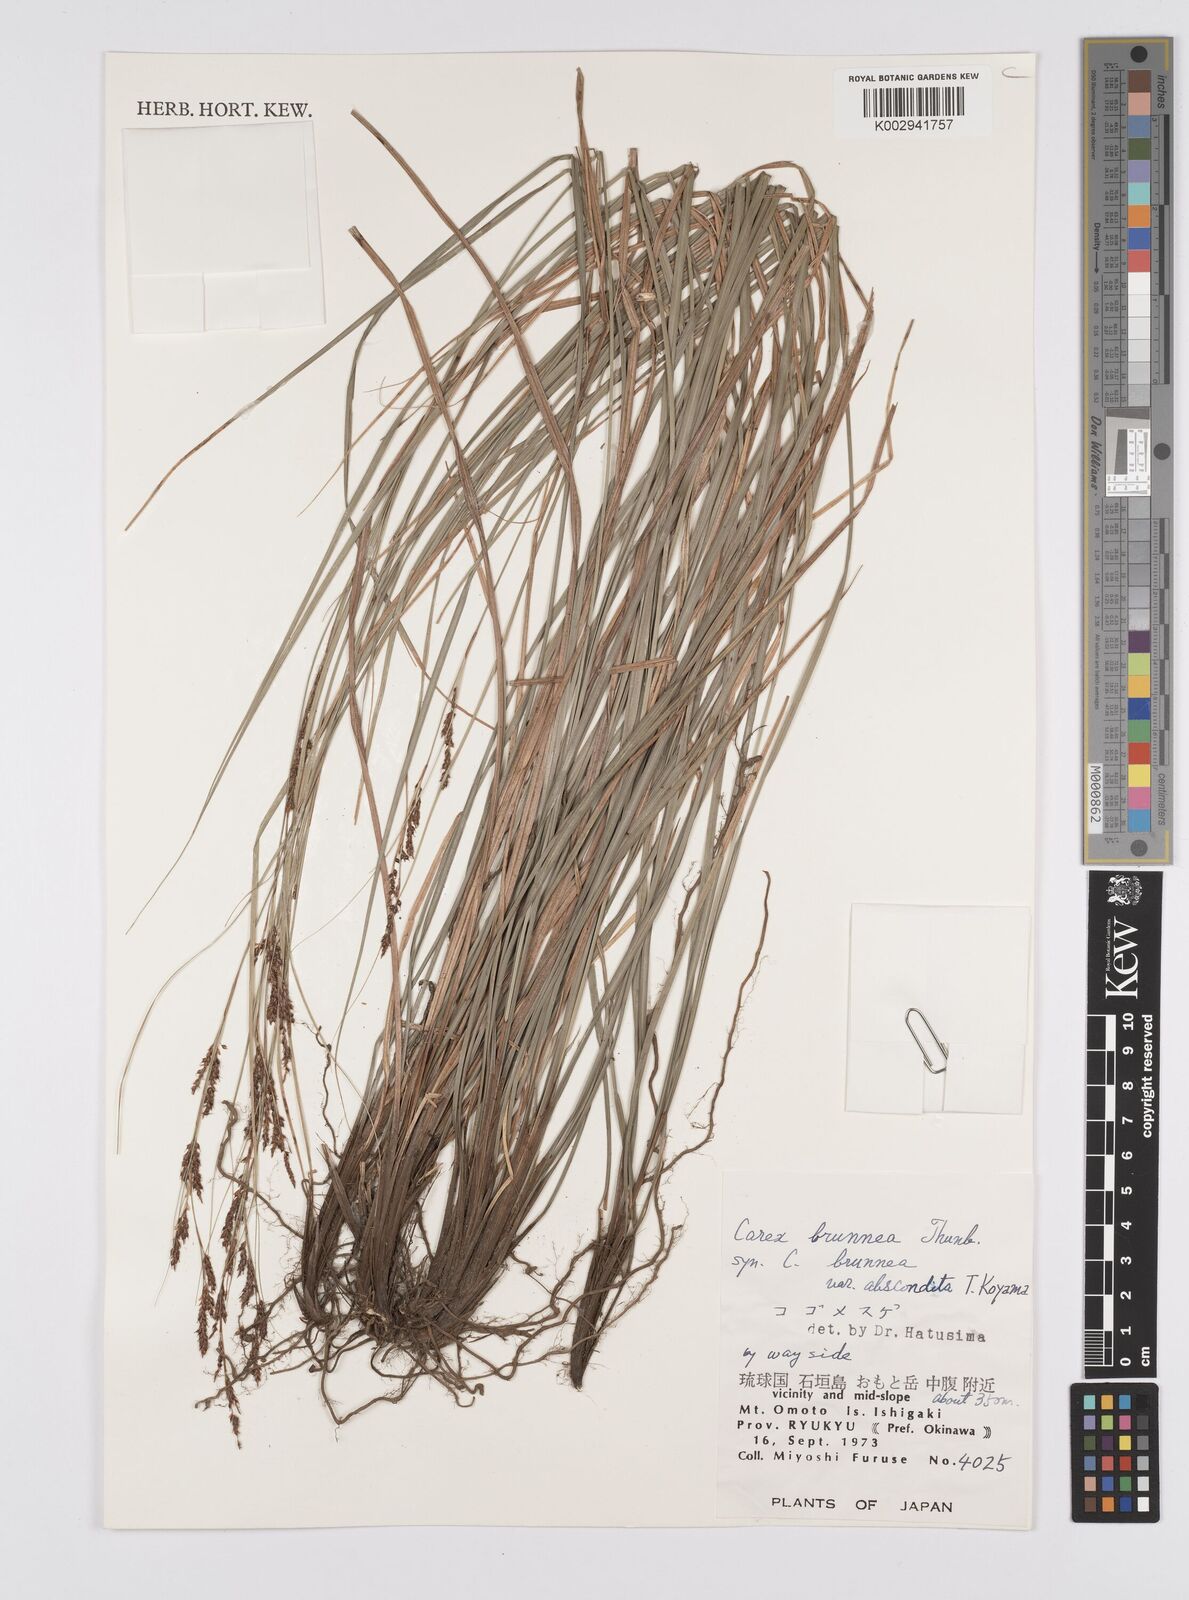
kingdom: Plantae
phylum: Tracheophyta
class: Liliopsida
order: Poales
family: Cyperaceae
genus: Carex
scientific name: Carex brunnea
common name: Greater brown sedge
